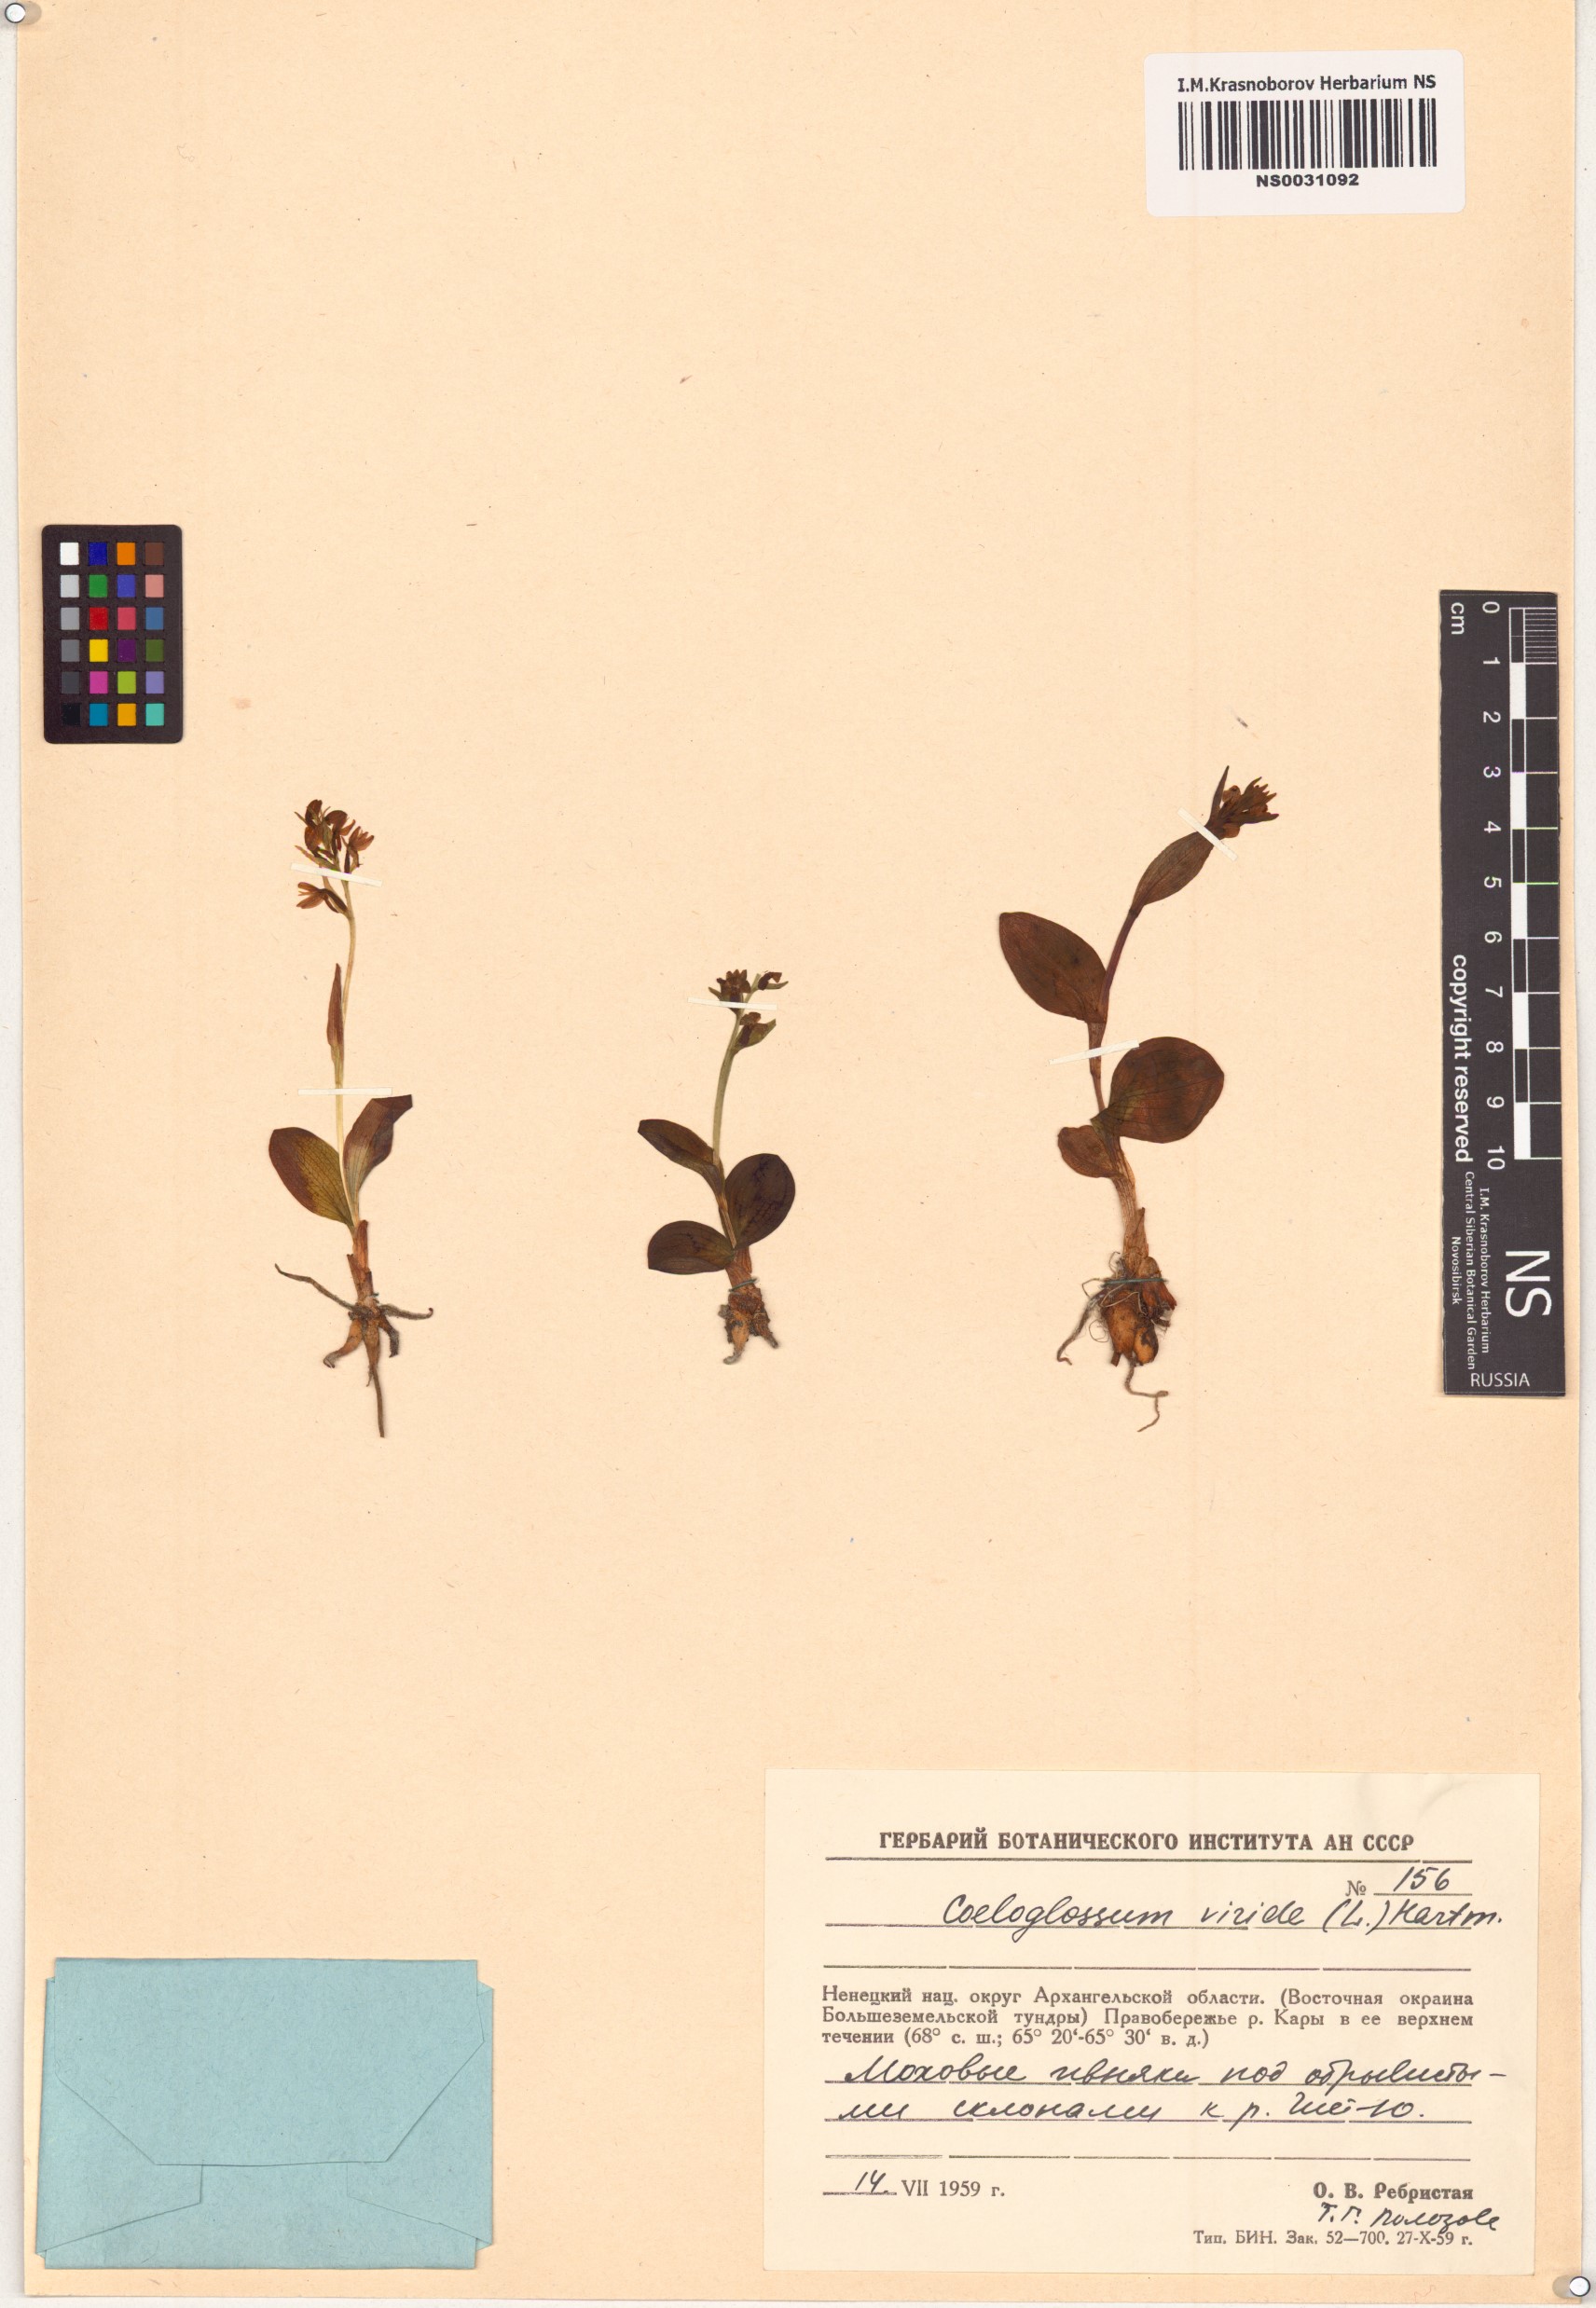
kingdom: Plantae
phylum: Tracheophyta
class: Liliopsida
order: Asparagales
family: Orchidaceae
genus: Dactylorhiza
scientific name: Dactylorhiza viridis
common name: Longbract frog orchid
